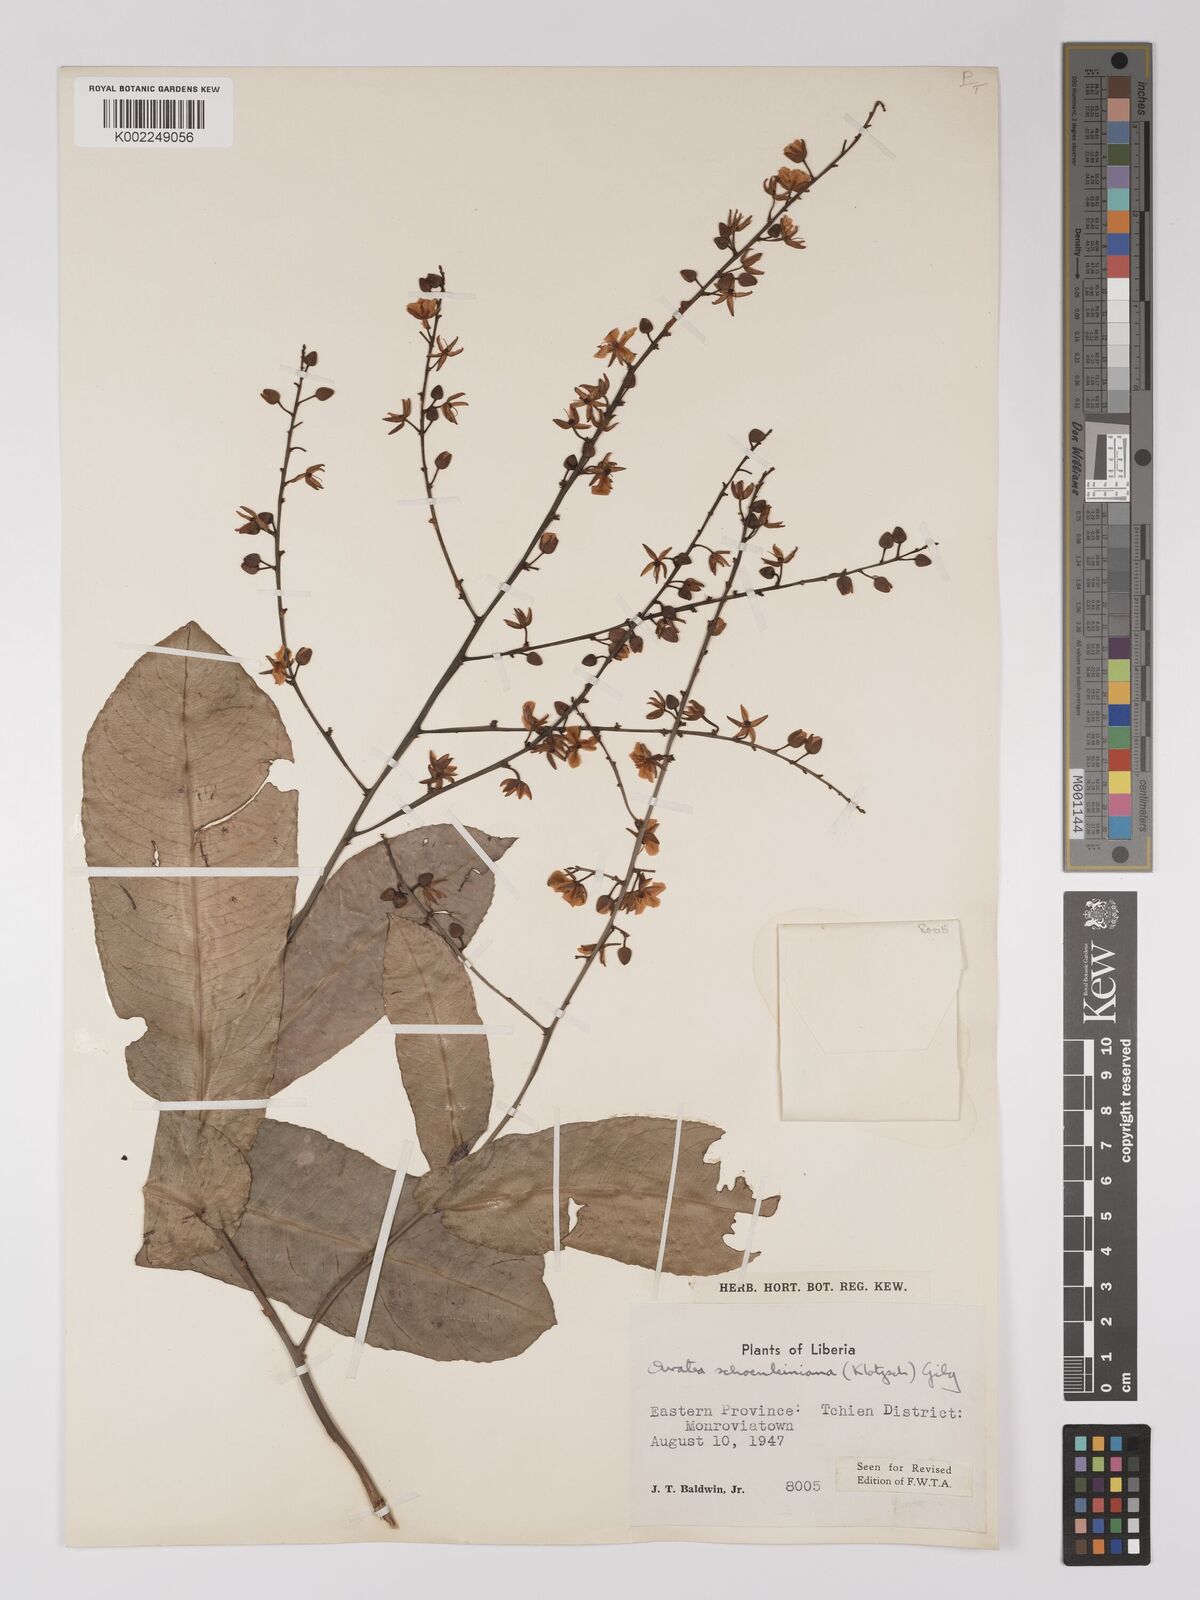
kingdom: Plantae
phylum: Tracheophyta
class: Magnoliopsida
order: Malpighiales
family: Ochnaceae
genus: Campylospermum
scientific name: Campylospermum schoenleinianum
